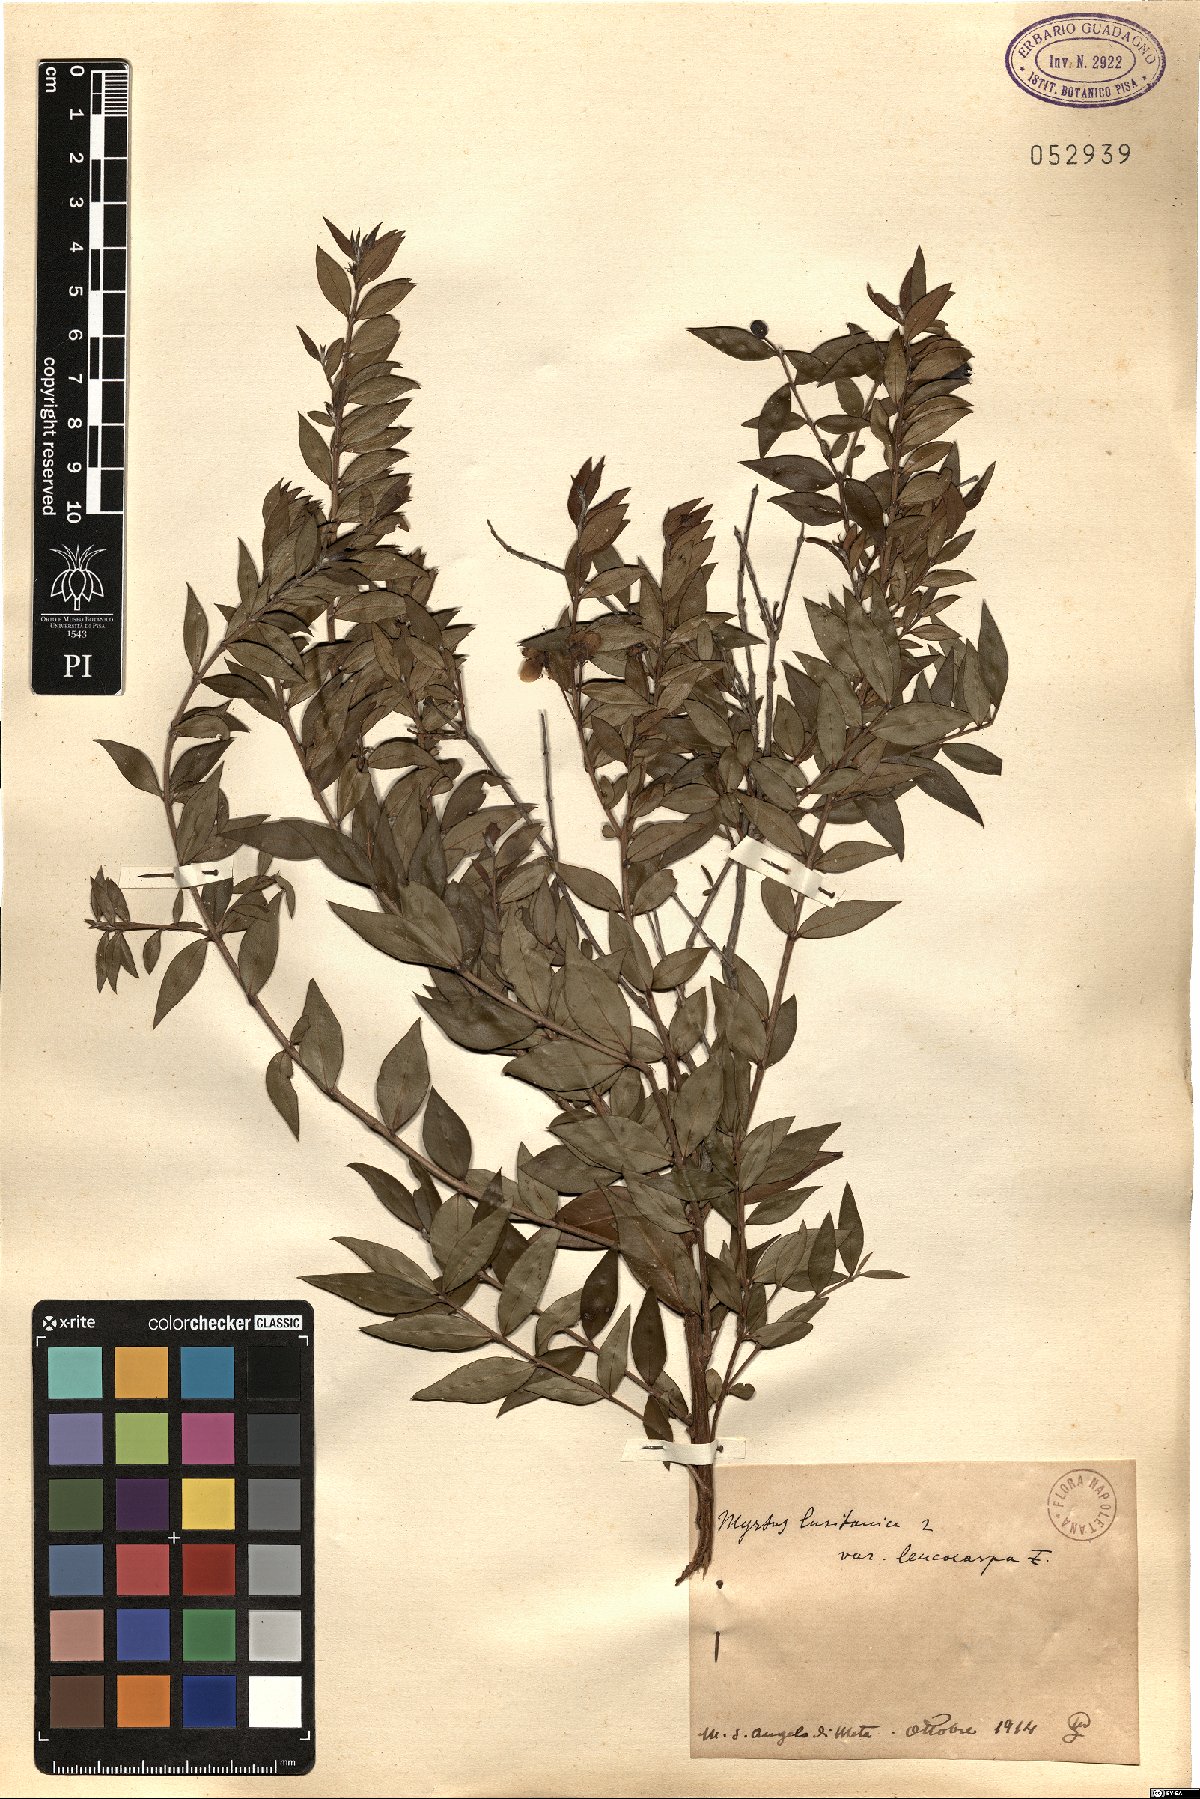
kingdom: Plantae
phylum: Tracheophyta
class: Magnoliopsida
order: Myrtales
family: Myrtaceae
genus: Myrtus
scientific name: Myrtus lusitanica
